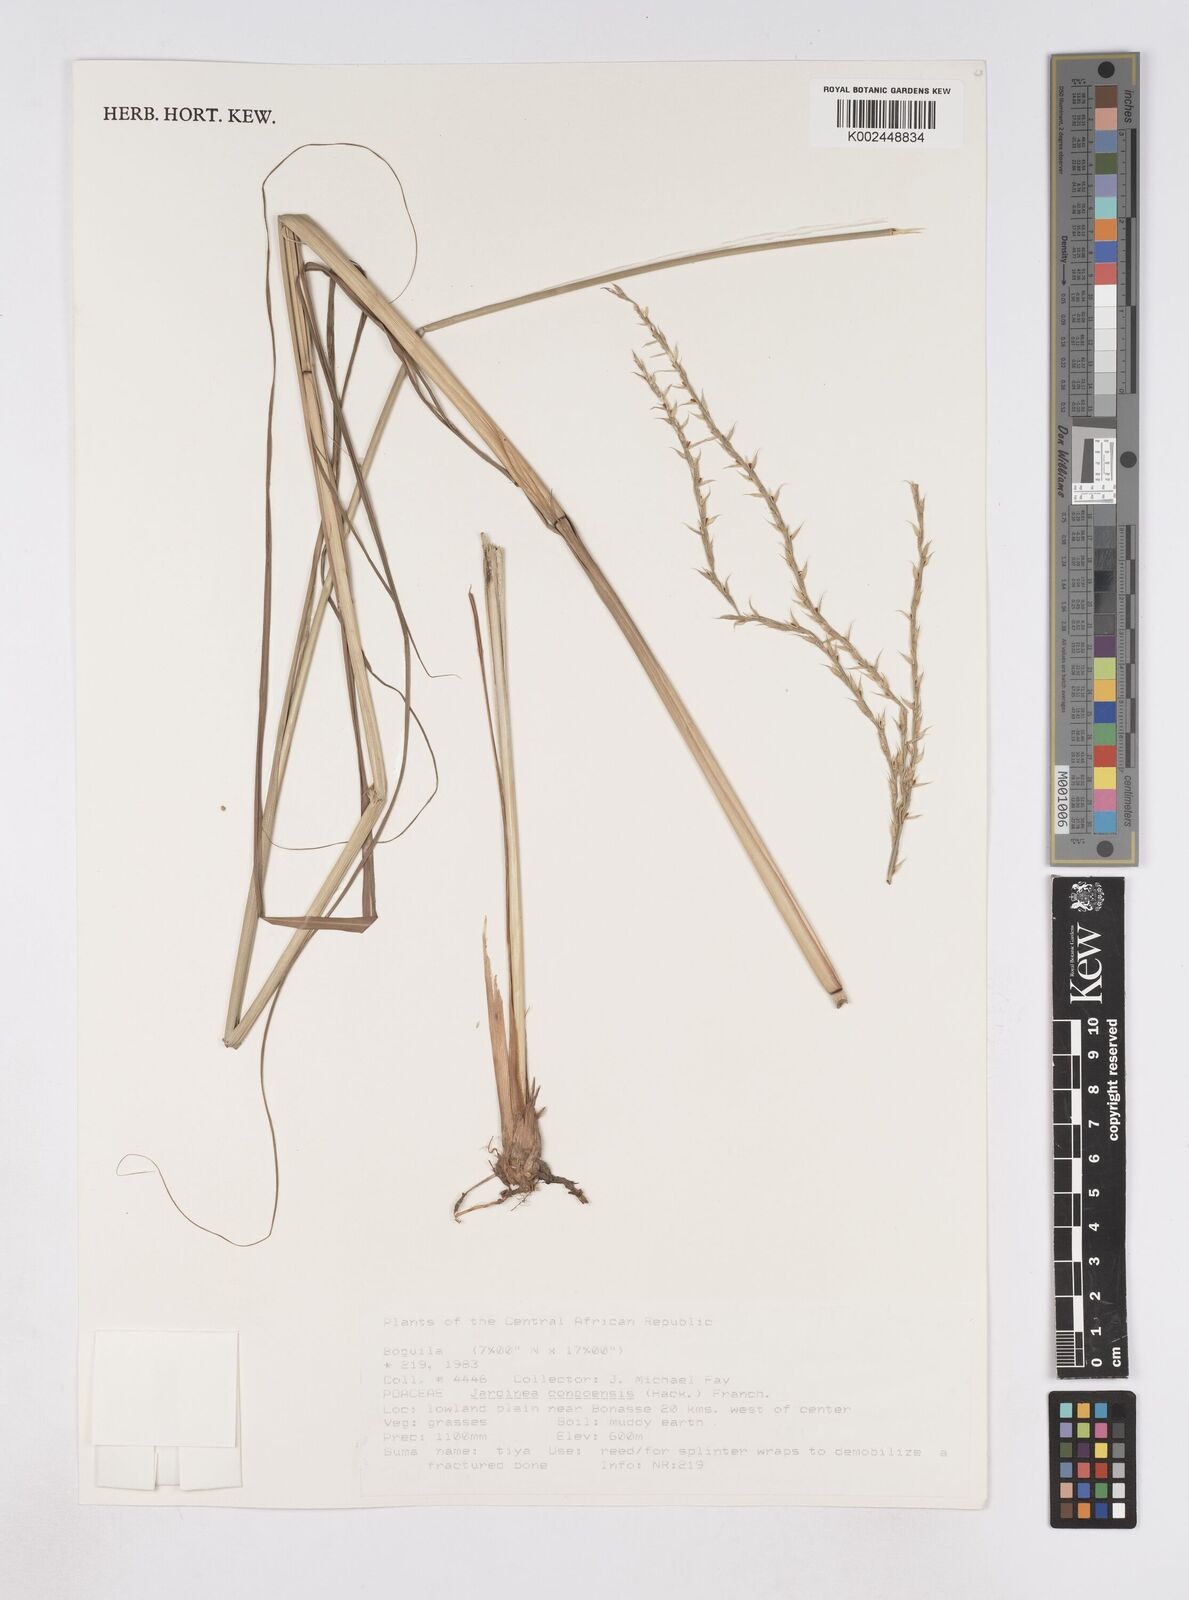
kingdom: Plantae
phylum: Tracheophyta
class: Liliopsida
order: Poales
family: Poaceae
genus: Phacelurus
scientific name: Phacelurus gabonensis
